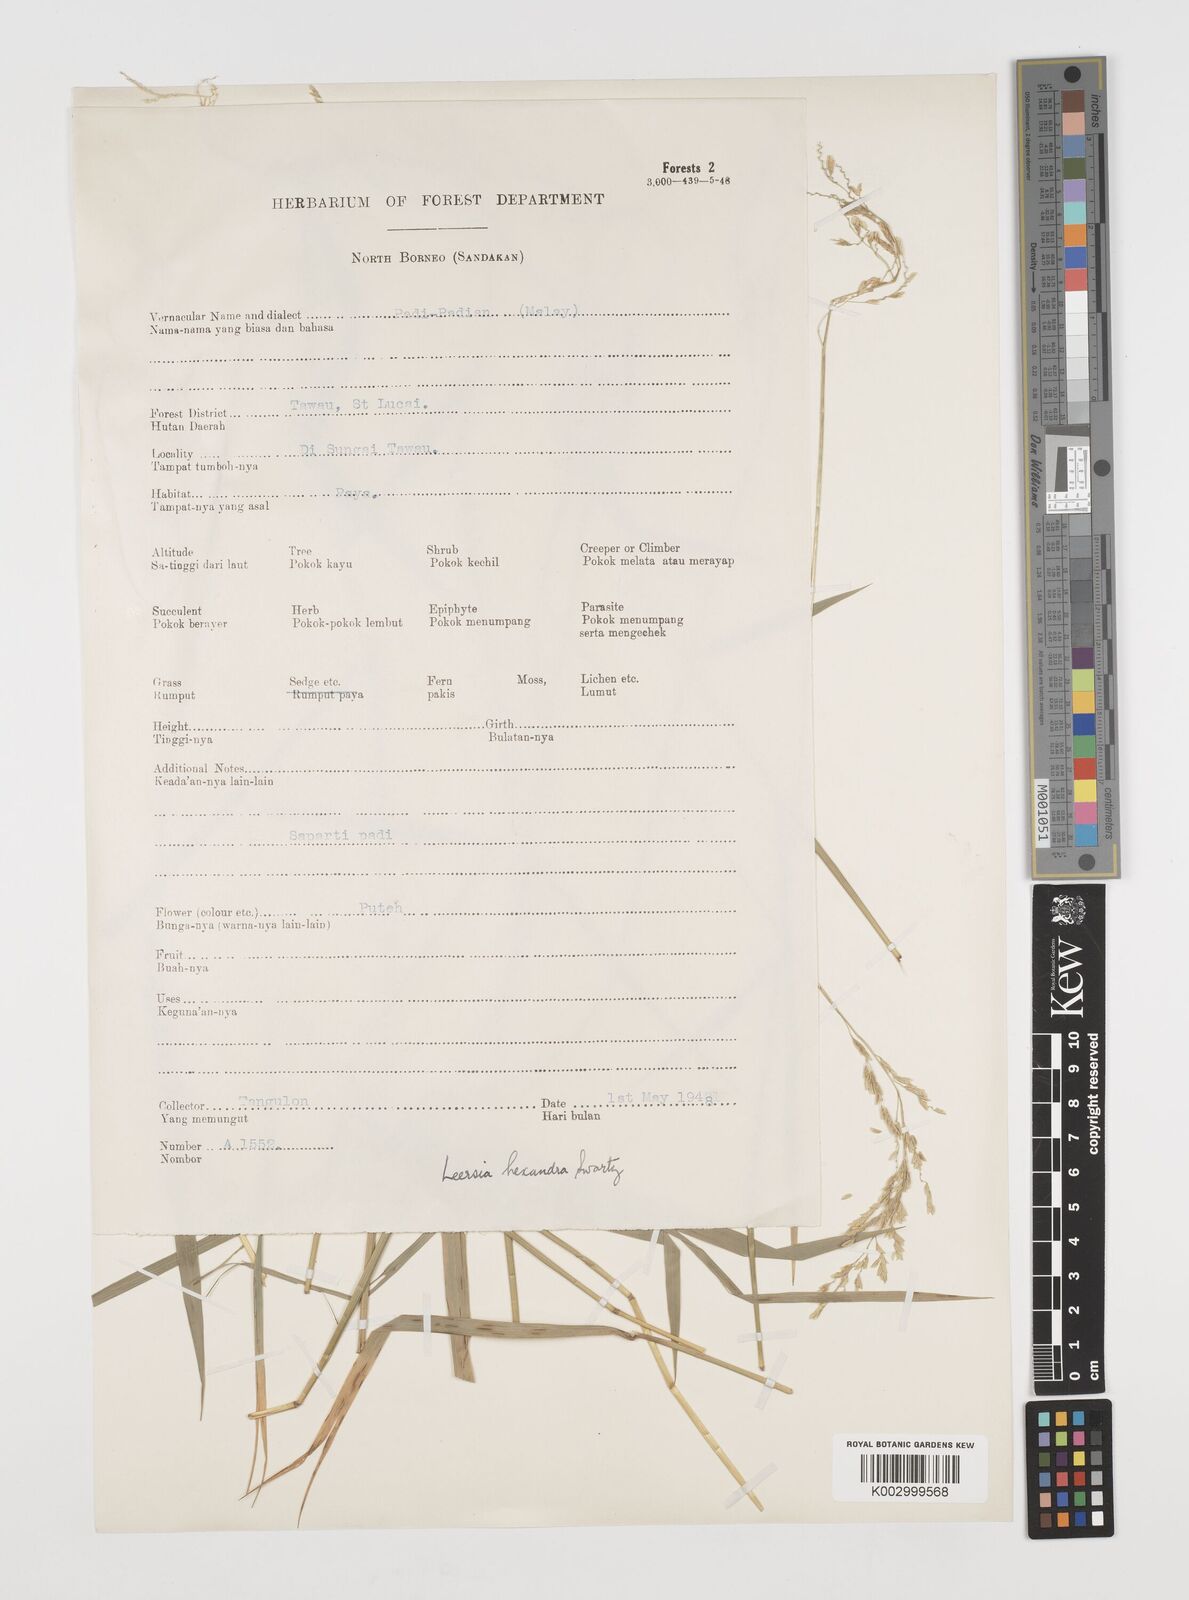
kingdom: Plantae
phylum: Tracheophyta
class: Liliopsida
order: Poales
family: Poaceae
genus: Leersia
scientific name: Leersia hexandra
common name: Southern cut grass
